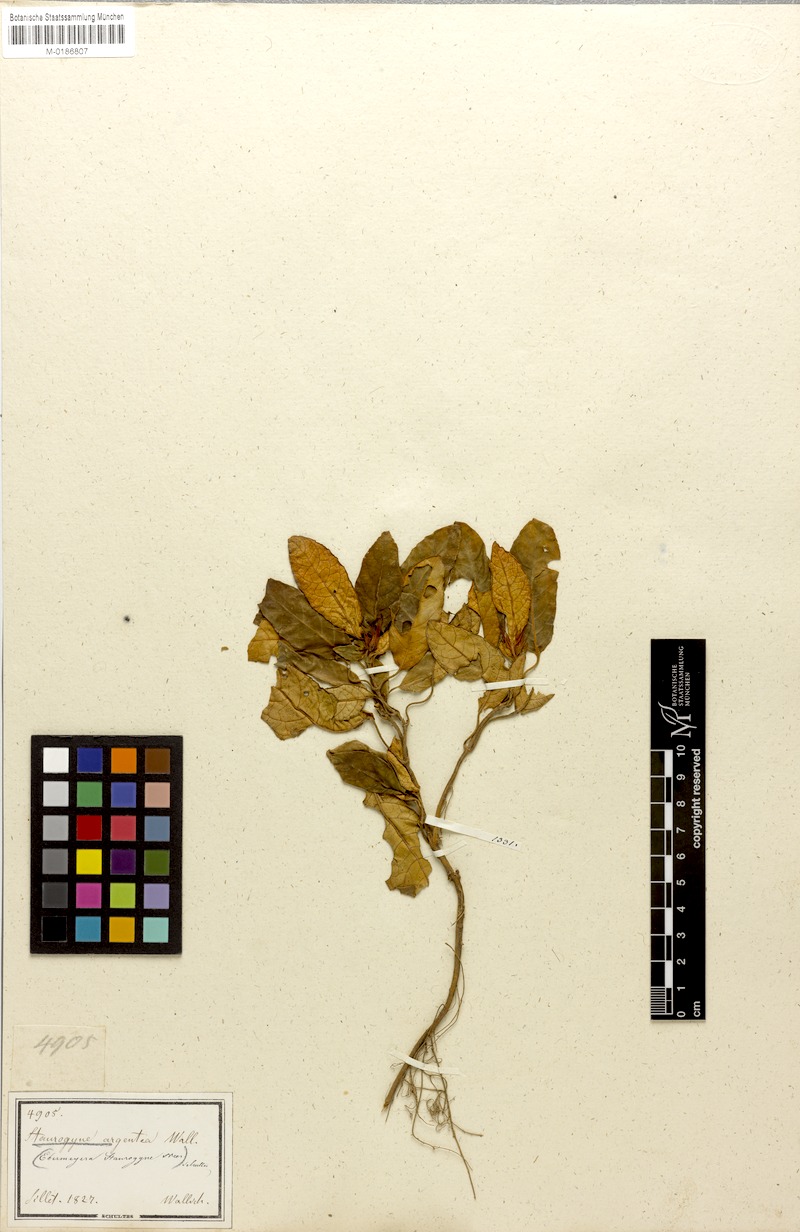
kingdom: Plantae
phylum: Tracheophyta
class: Magnoliopsida
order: Lamiales
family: Acanthaceae
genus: Staurogyne
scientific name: Staurogyne argentea
